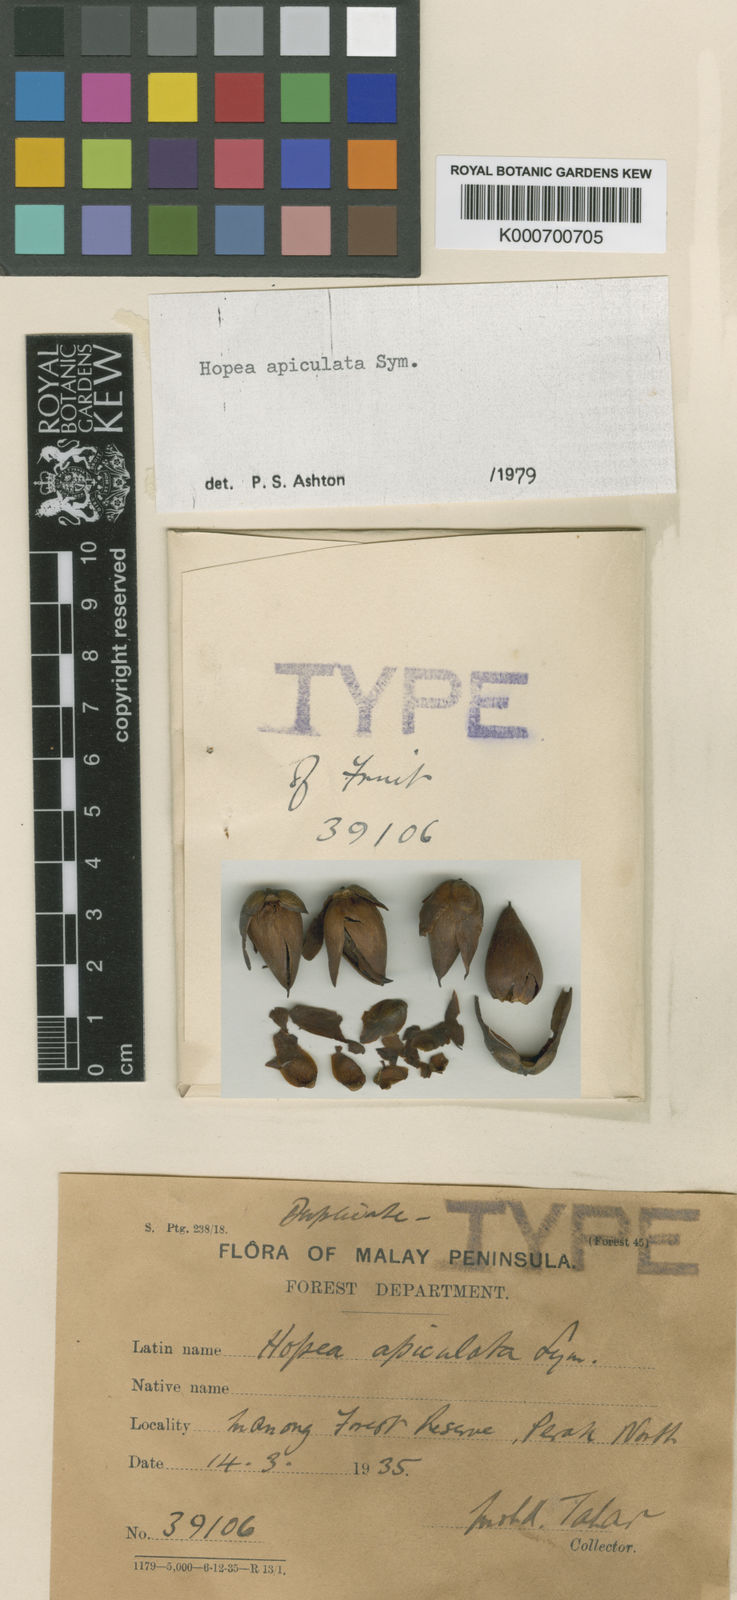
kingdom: Plantae
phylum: Tracheophyta
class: Magnoliopsida
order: Malvales
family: Dipterocarpaceae
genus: Hopea
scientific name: Hopea apiculata
